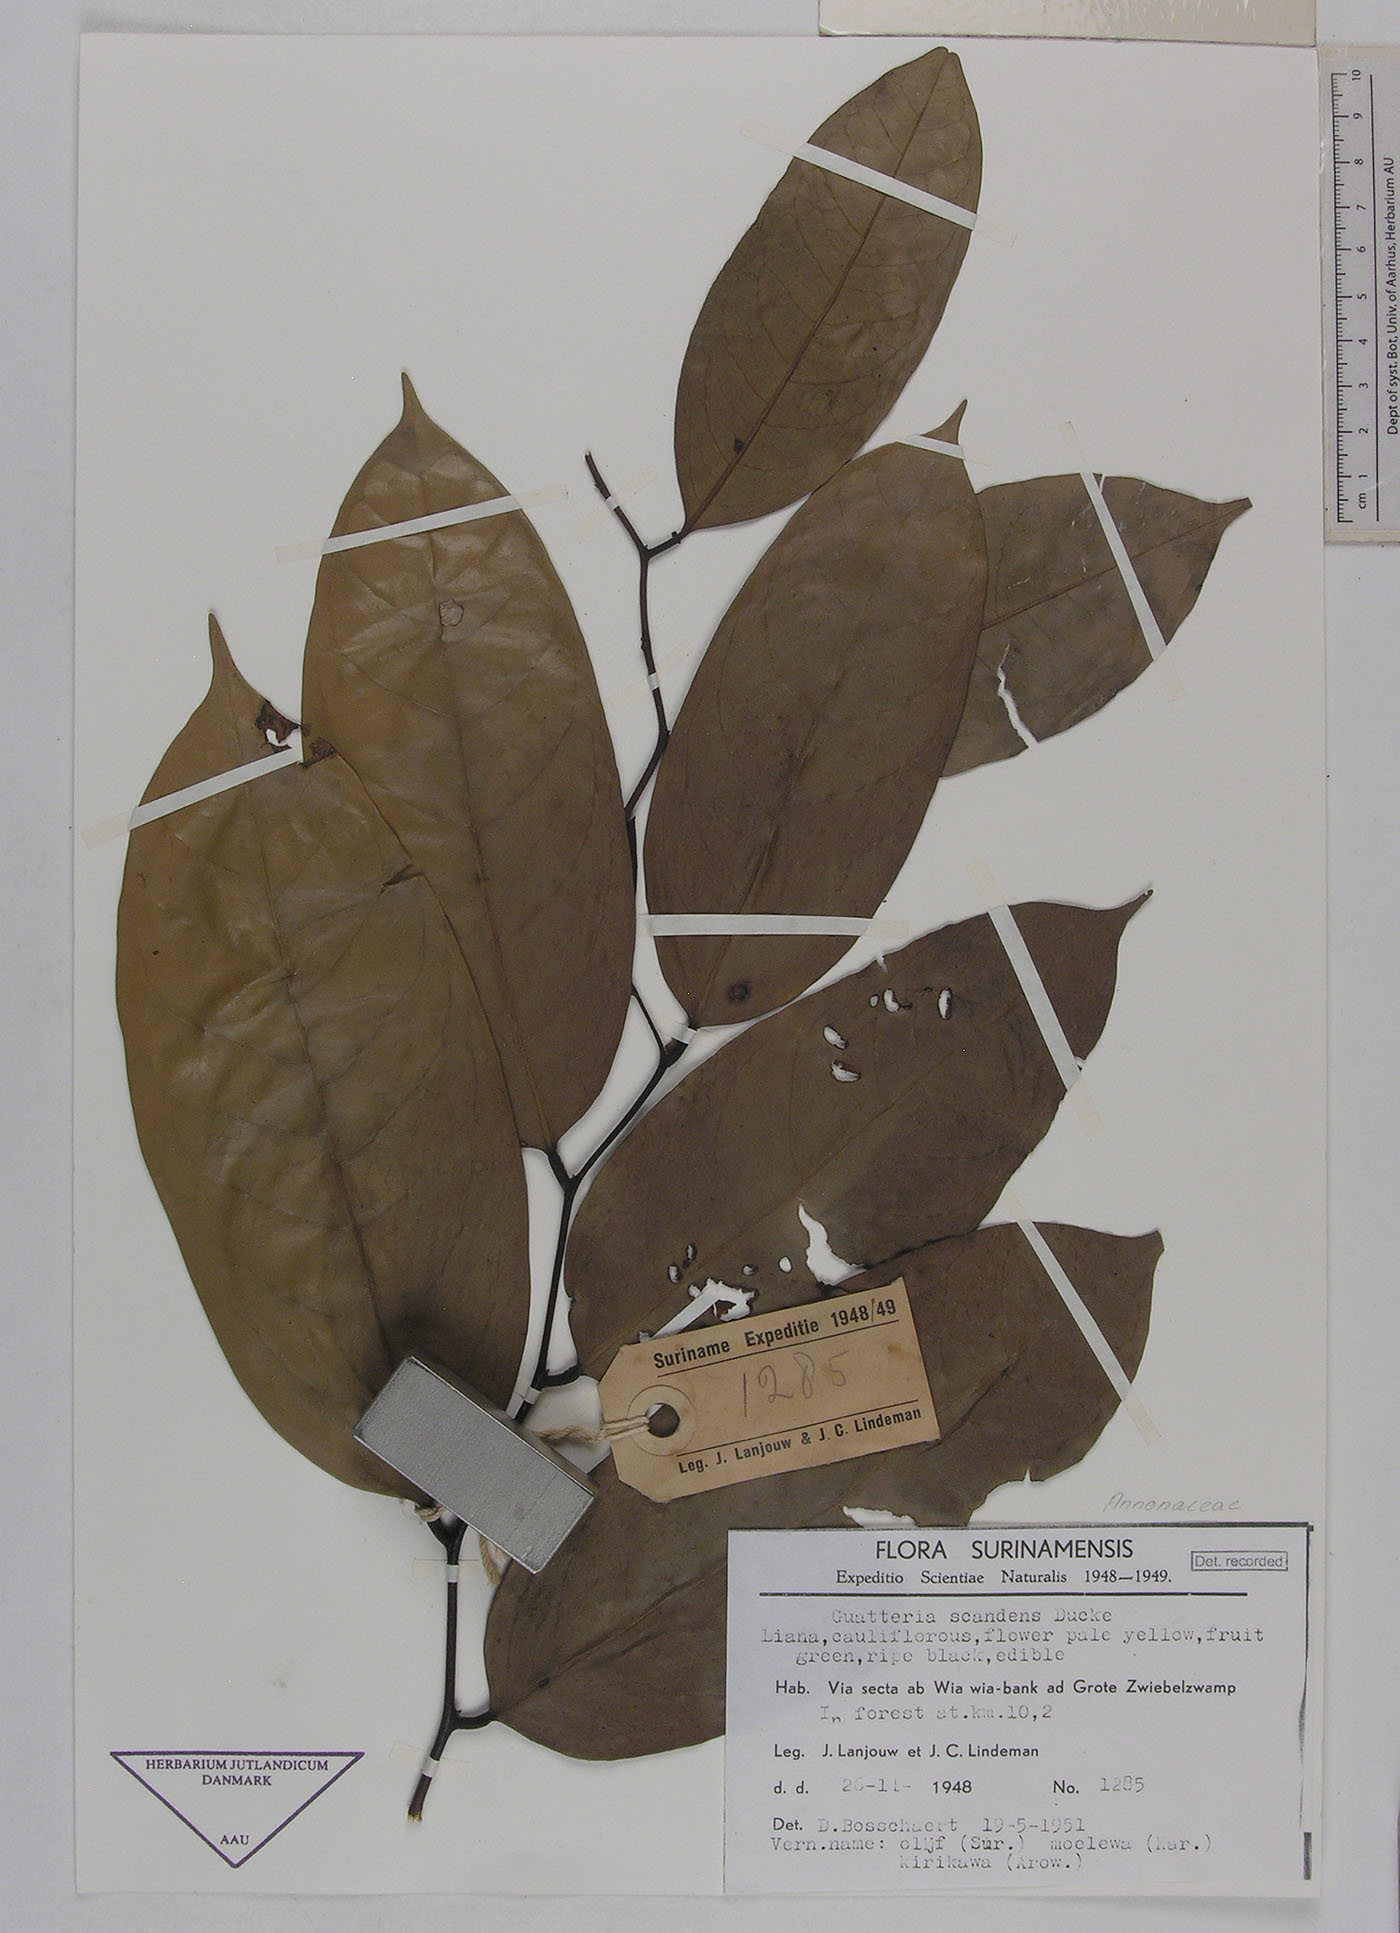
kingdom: Plantae
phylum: Tracheophyta
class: Magnoliopsida
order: Magnoliales
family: Annonaceae
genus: Guatteria
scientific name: Guatteria scandens
